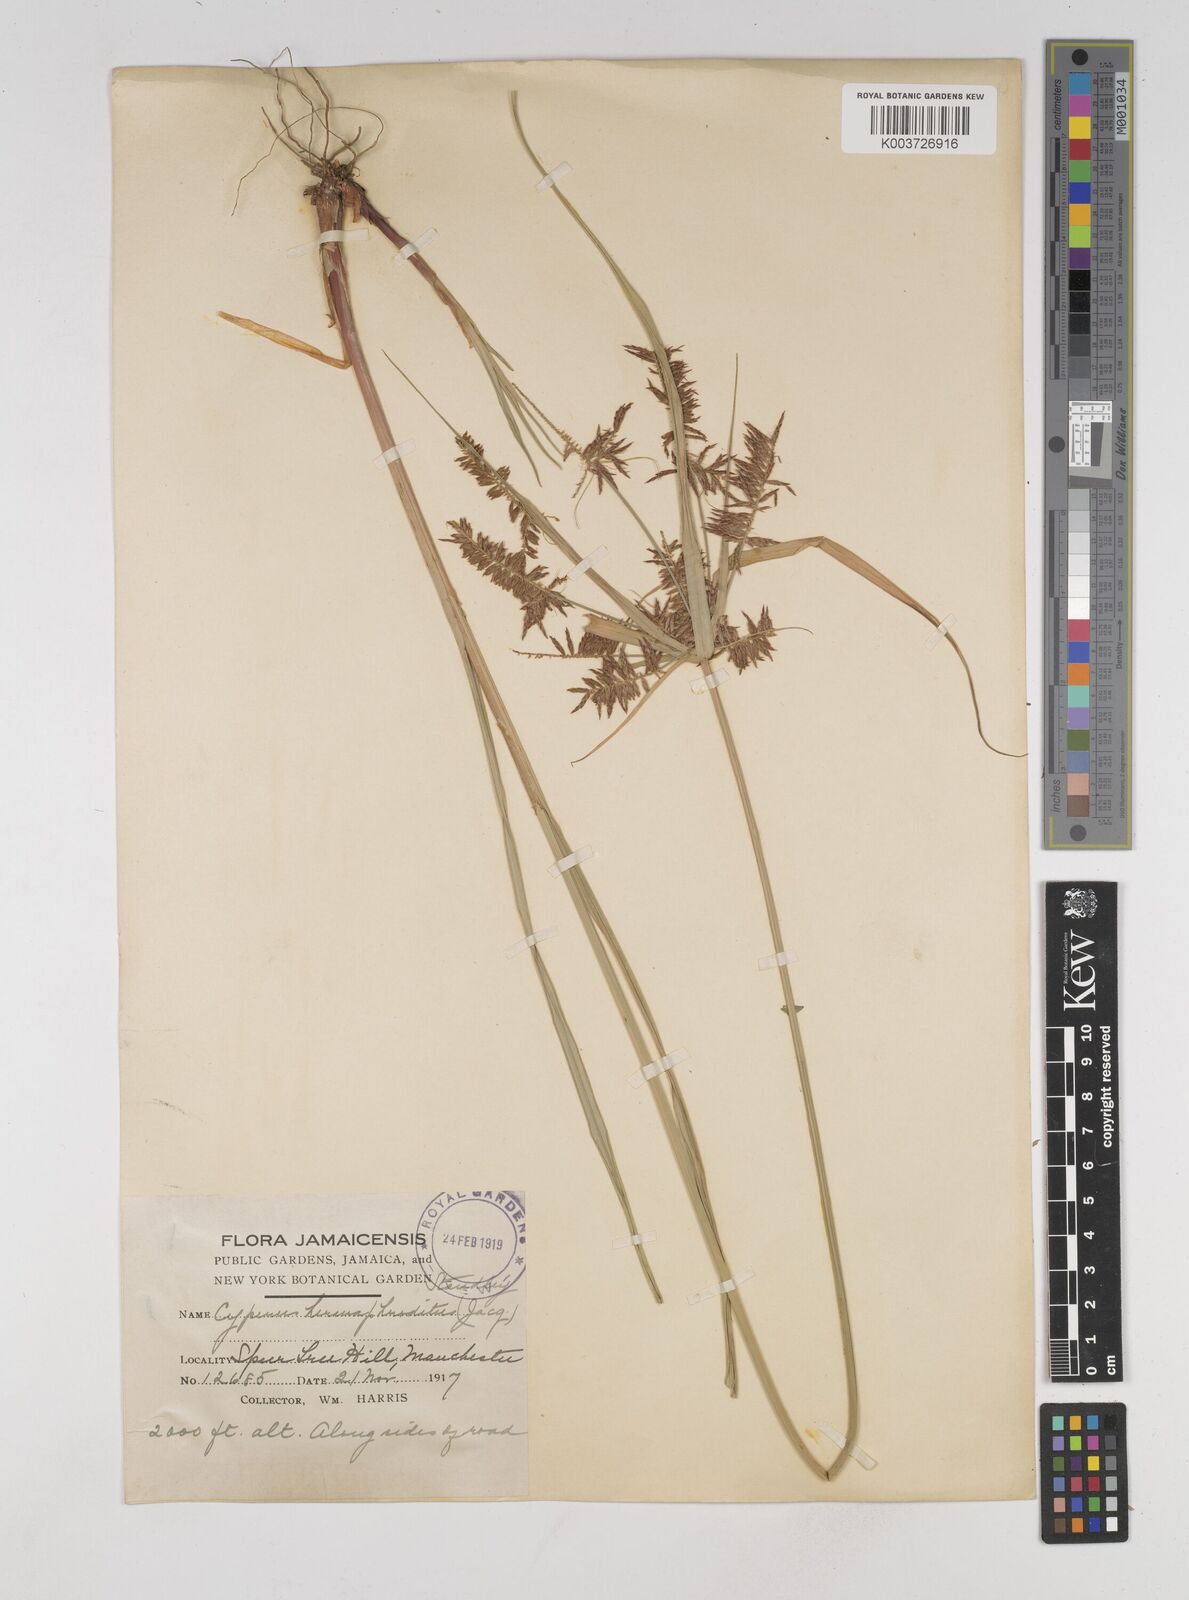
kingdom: Plantae
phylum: Tracheophyta
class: Liliopsida
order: Poales
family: Cyperaceae
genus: Cyperus
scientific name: Cyperus hermaphroditus
